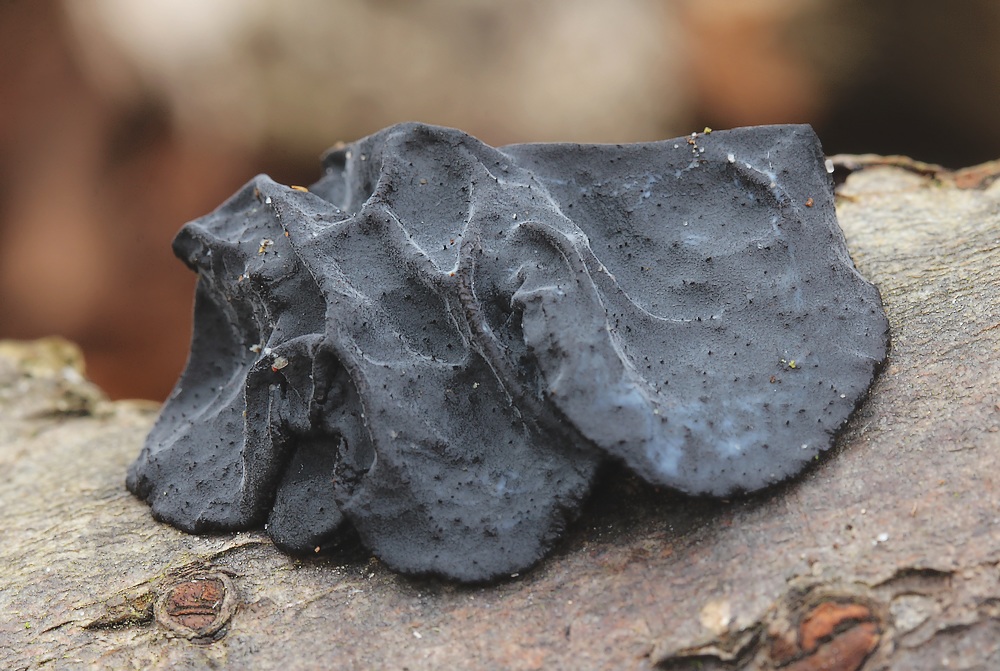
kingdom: Fungi
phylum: Basidiomycota
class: Agaricomycetes
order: Auriculariales
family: Auriculariaceae
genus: Exidia
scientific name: Exidia glandulosa
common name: ege-bævretop
